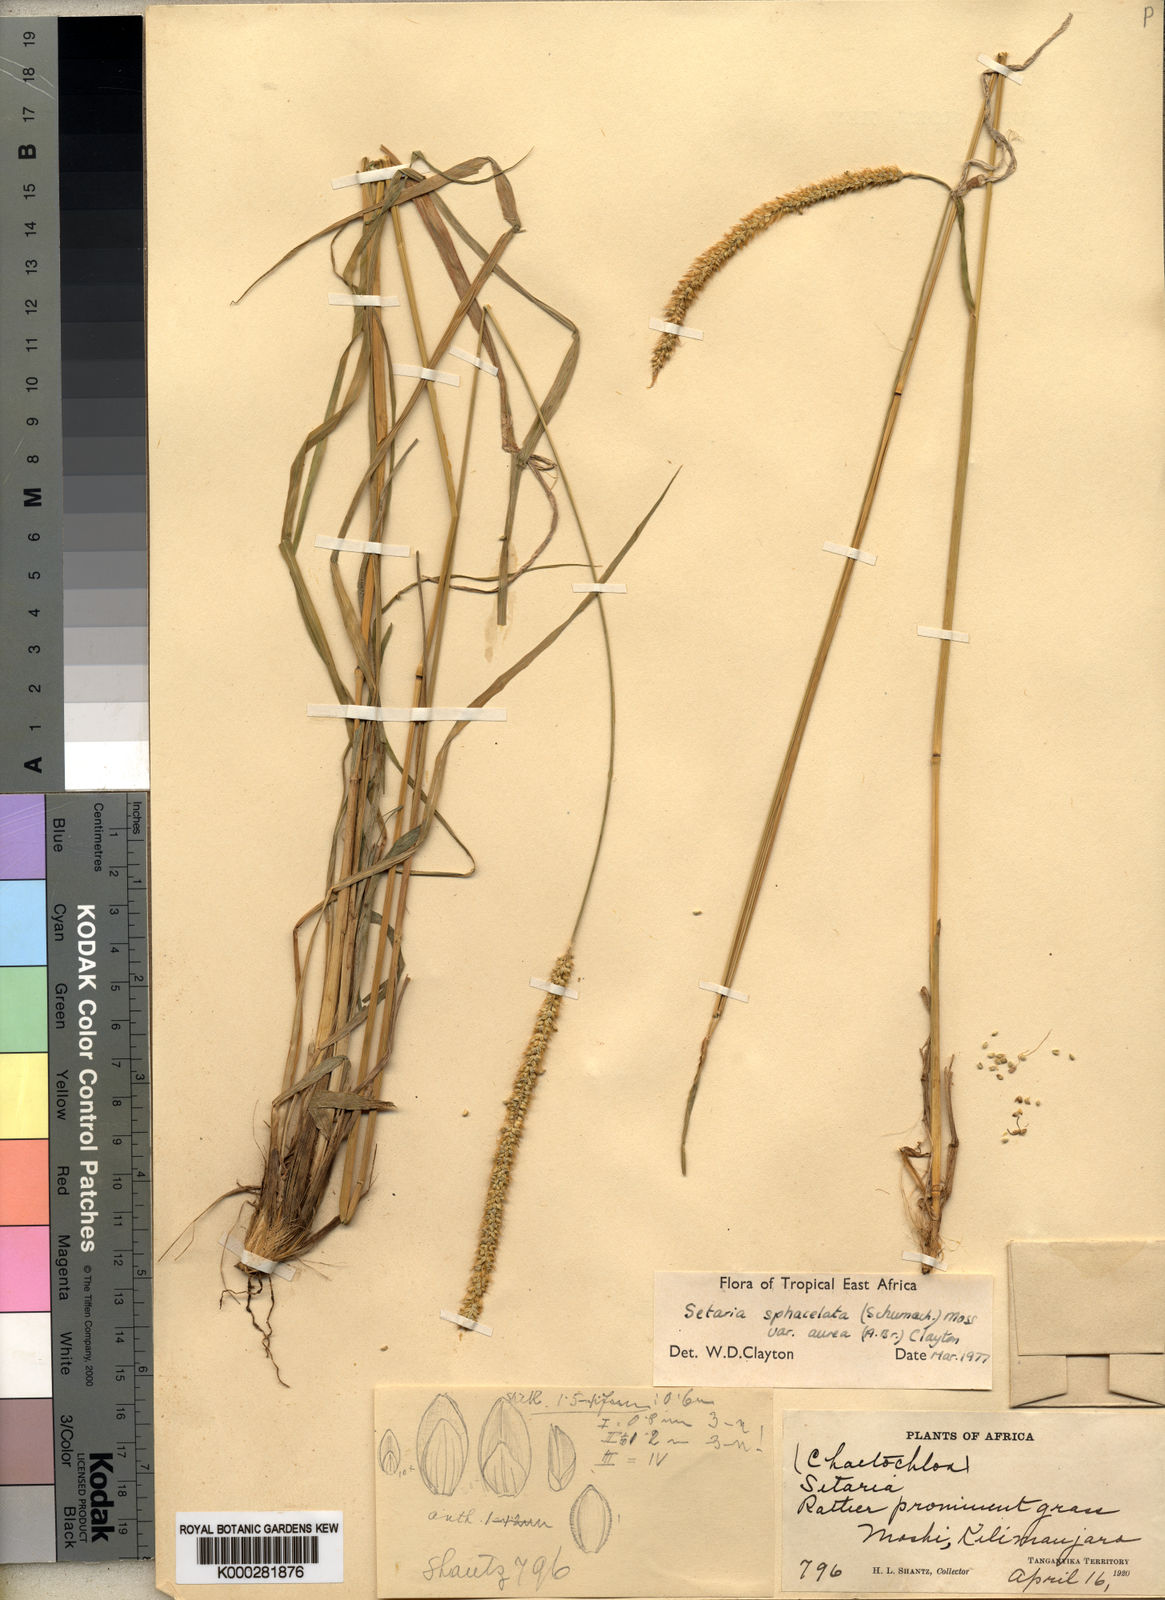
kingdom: Plantae
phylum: Tracheophyta
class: Liliopsida
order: Poales
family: Poaceae
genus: Setaria
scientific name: Setaria sphacelata
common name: African bristlegrass
